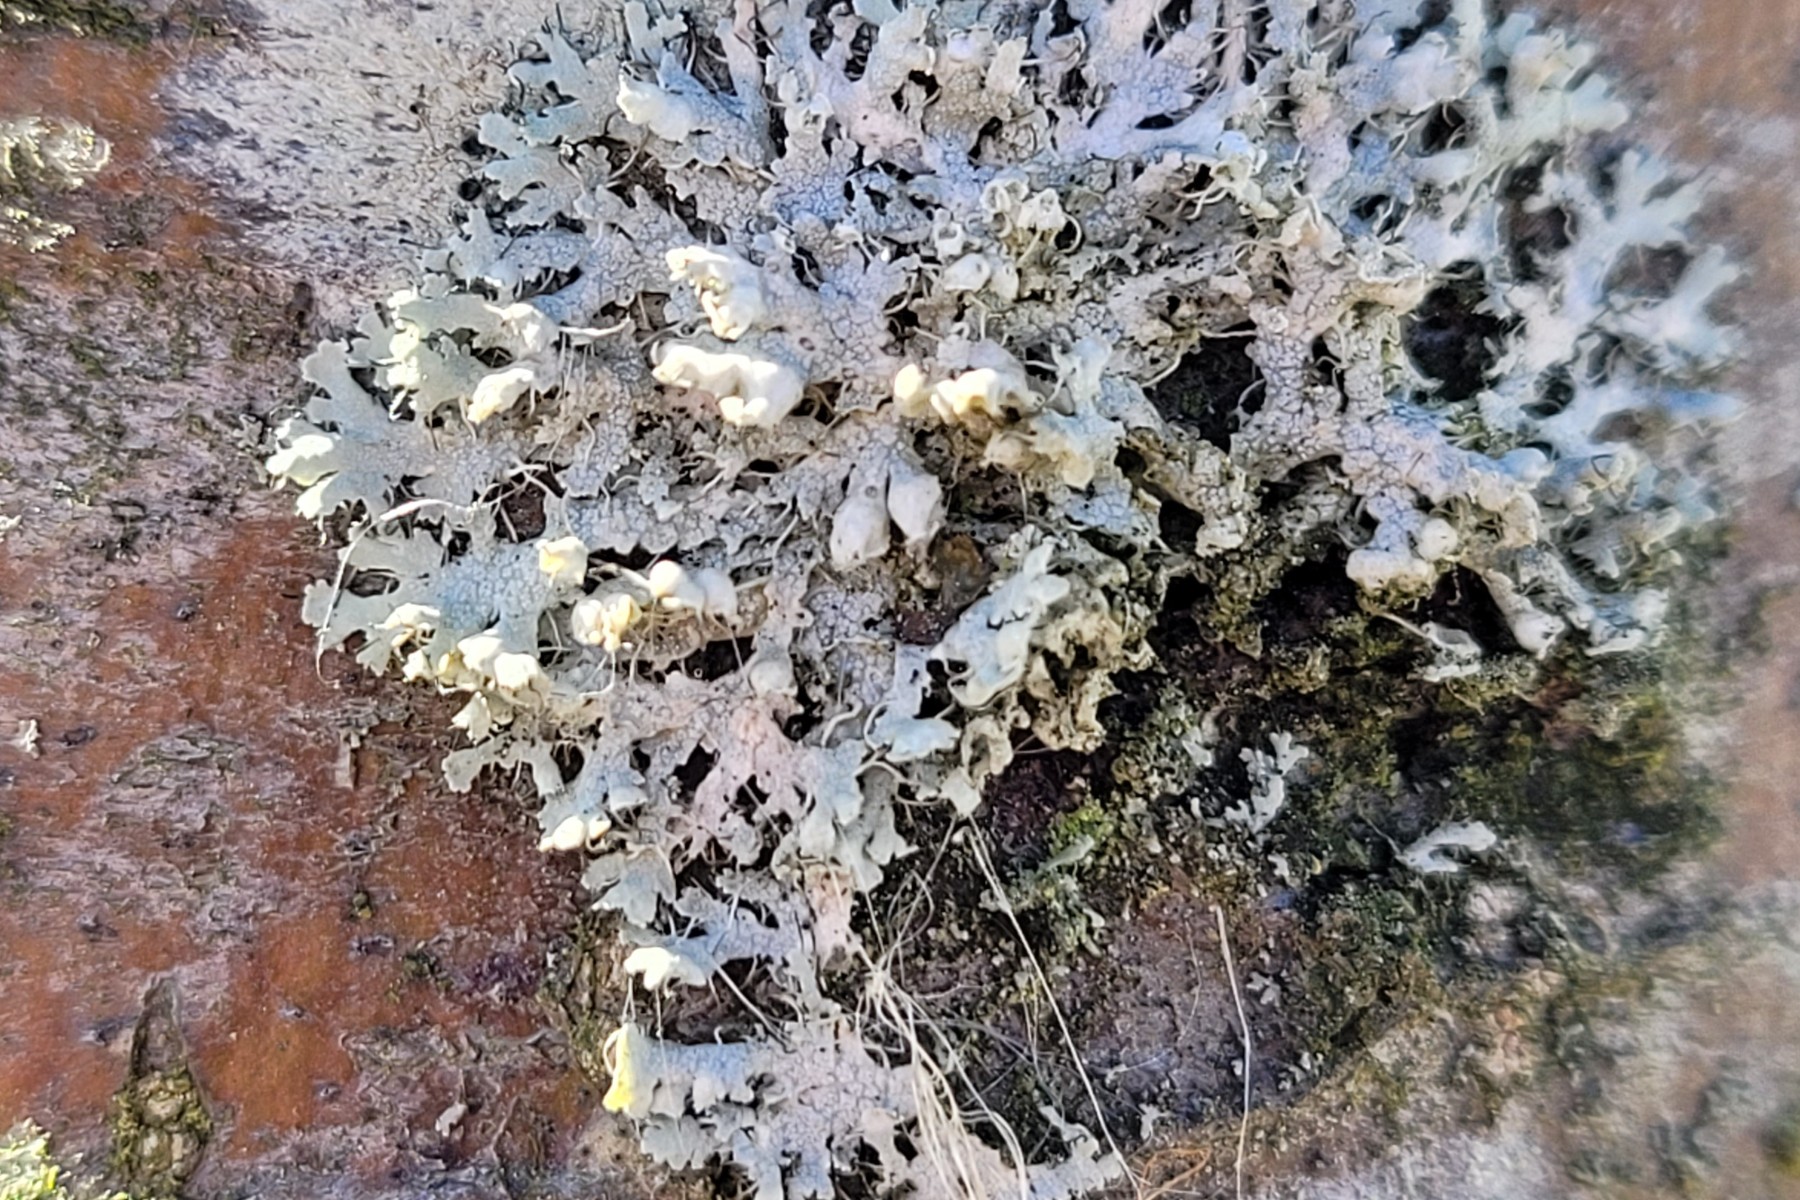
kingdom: Fungi
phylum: Ascomycota
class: Lecanoromycetes
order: Caliciales
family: Physciaceae
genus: Physcia
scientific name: Physcia adscendens
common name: hætte-rosetlav
